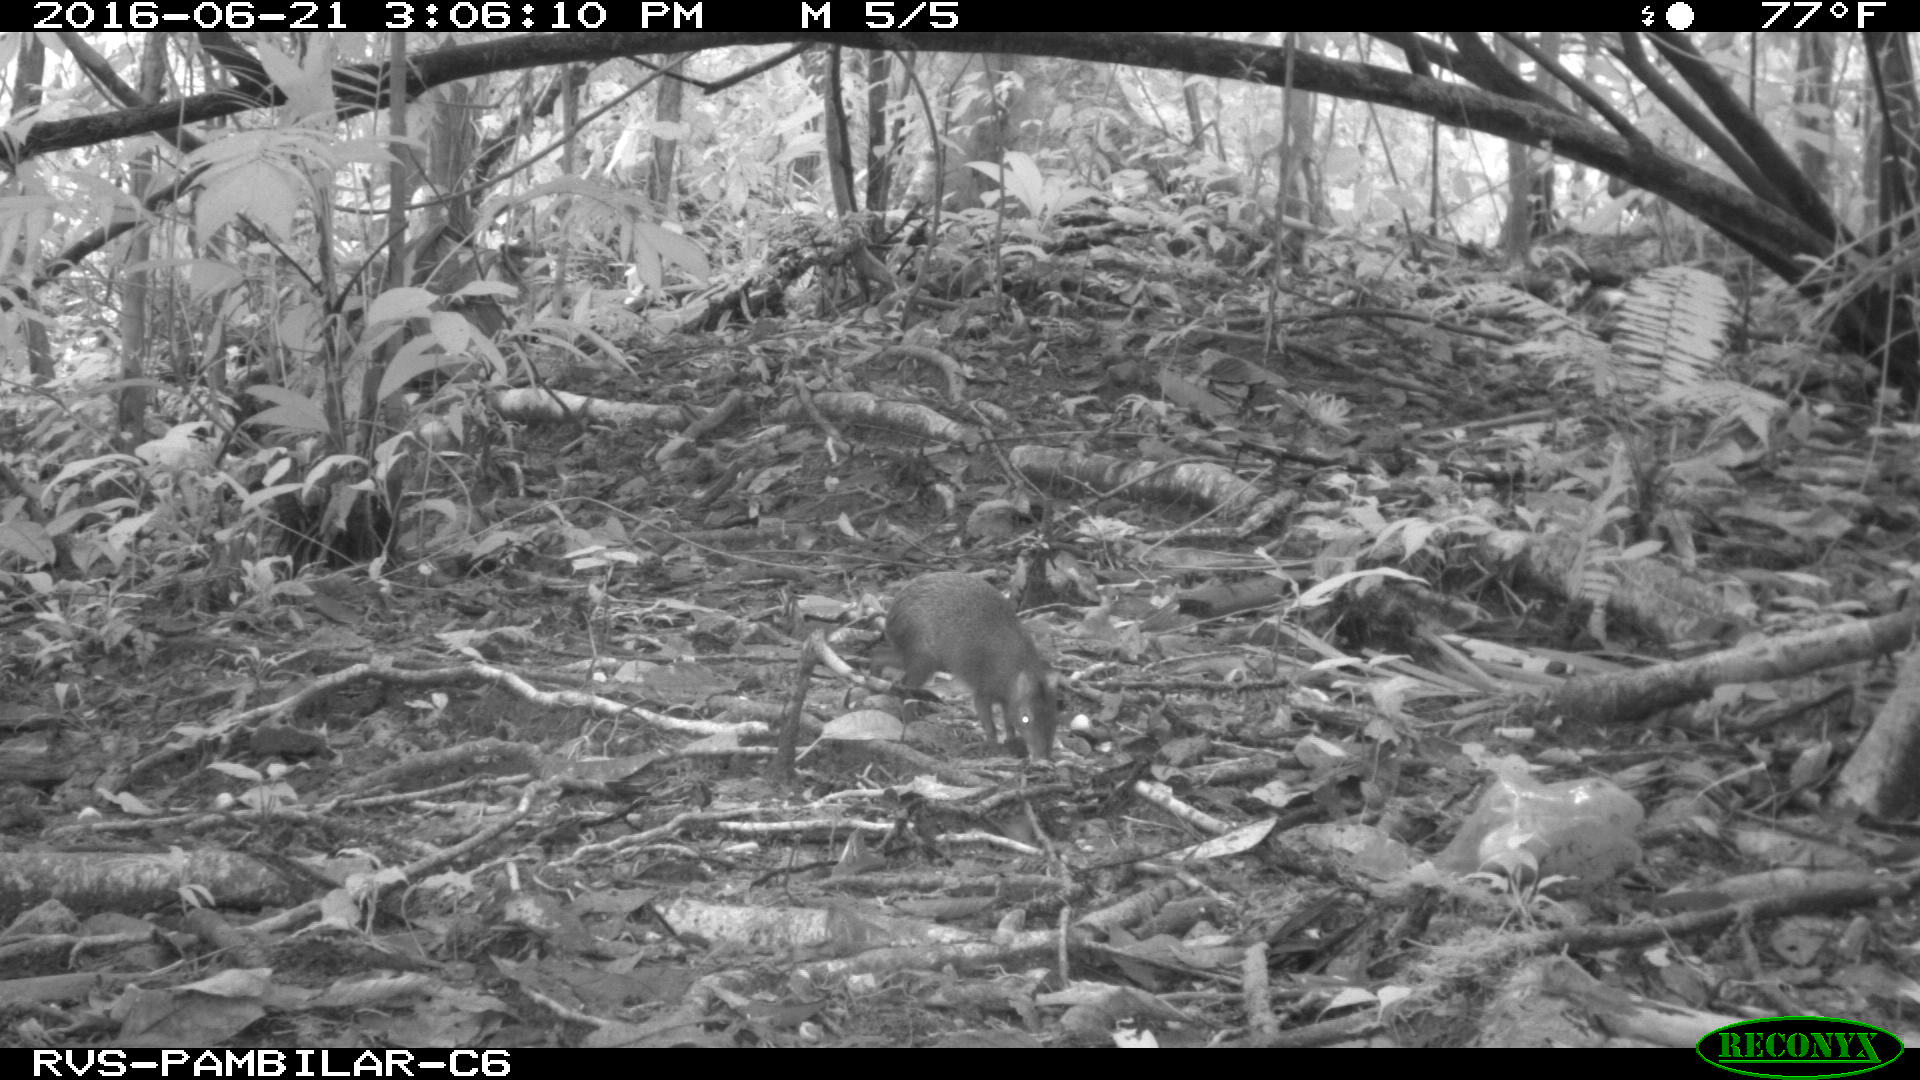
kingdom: Animalia
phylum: Chordata
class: Mammalia
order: Rodentia
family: Dasyproctidae
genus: Dasyprocta
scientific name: Dasyprocta punctata
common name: Central american agouti
